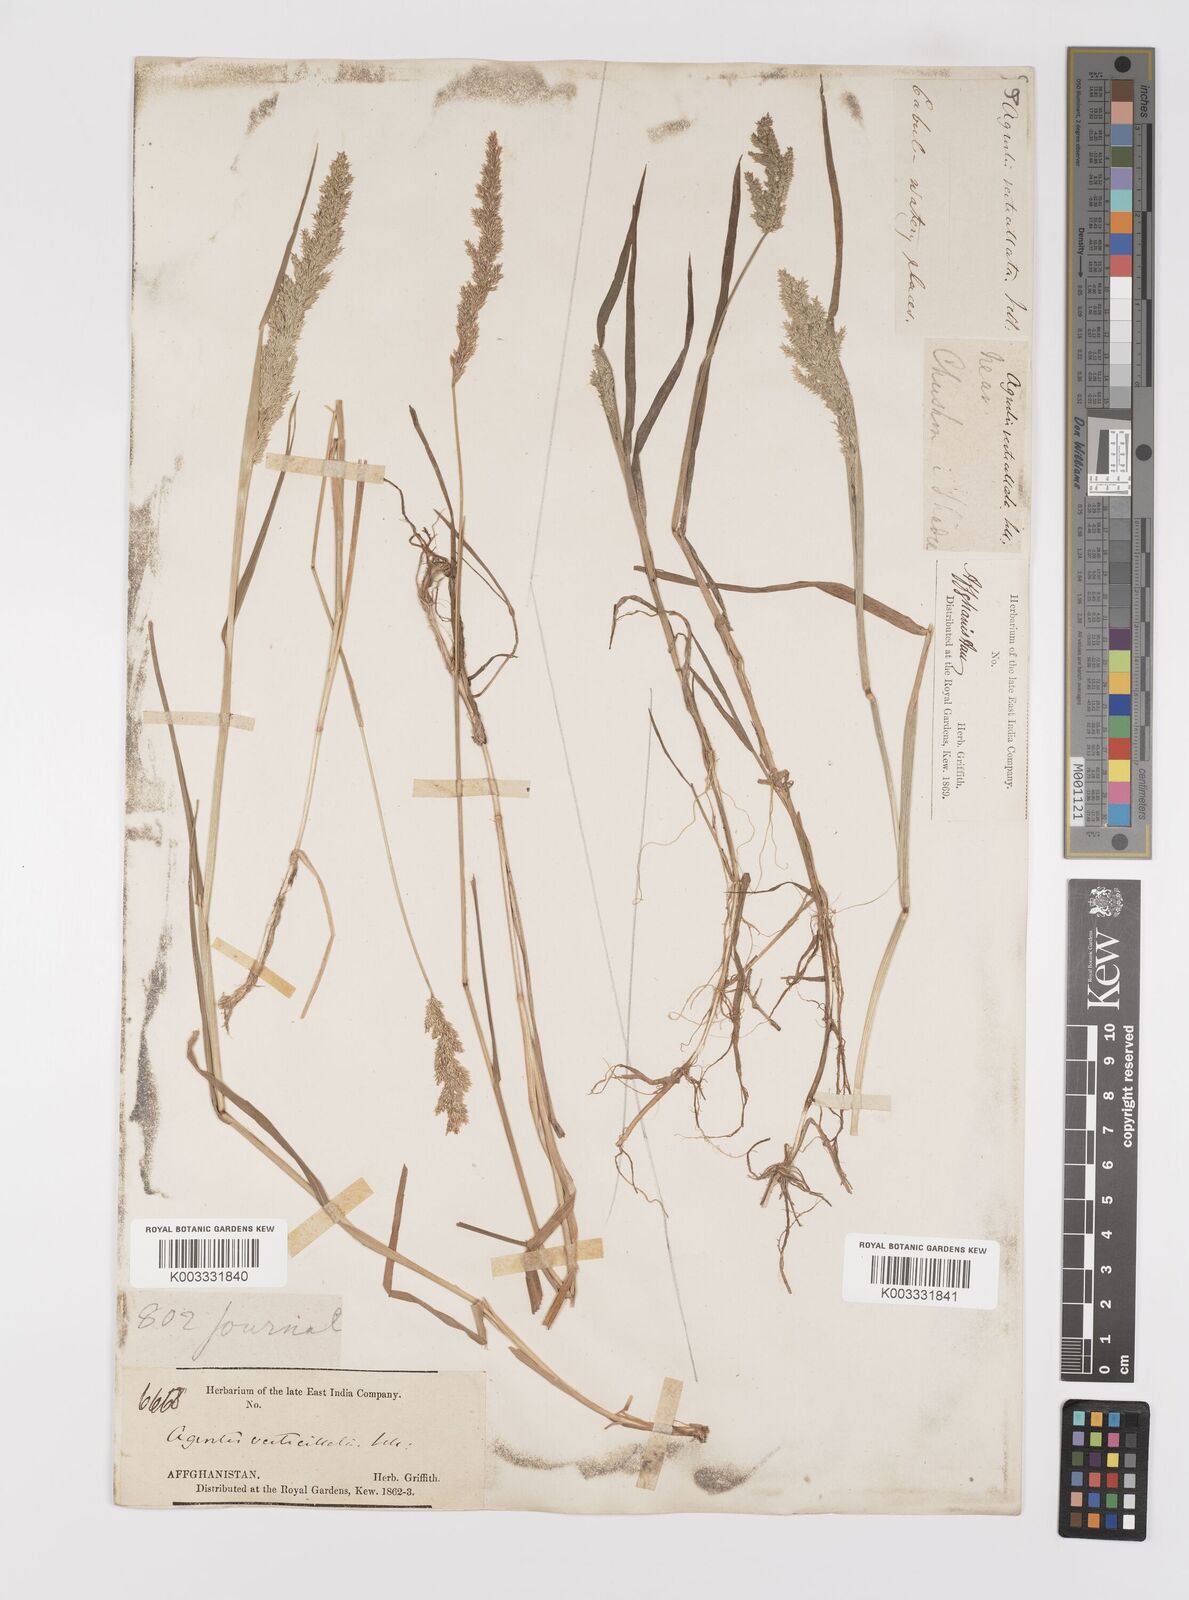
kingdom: Plantae
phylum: Tracheophyta
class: Liliopsida
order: Poales
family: Poaceae
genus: Polypogon
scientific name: Polypogon viridis
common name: Water bent
